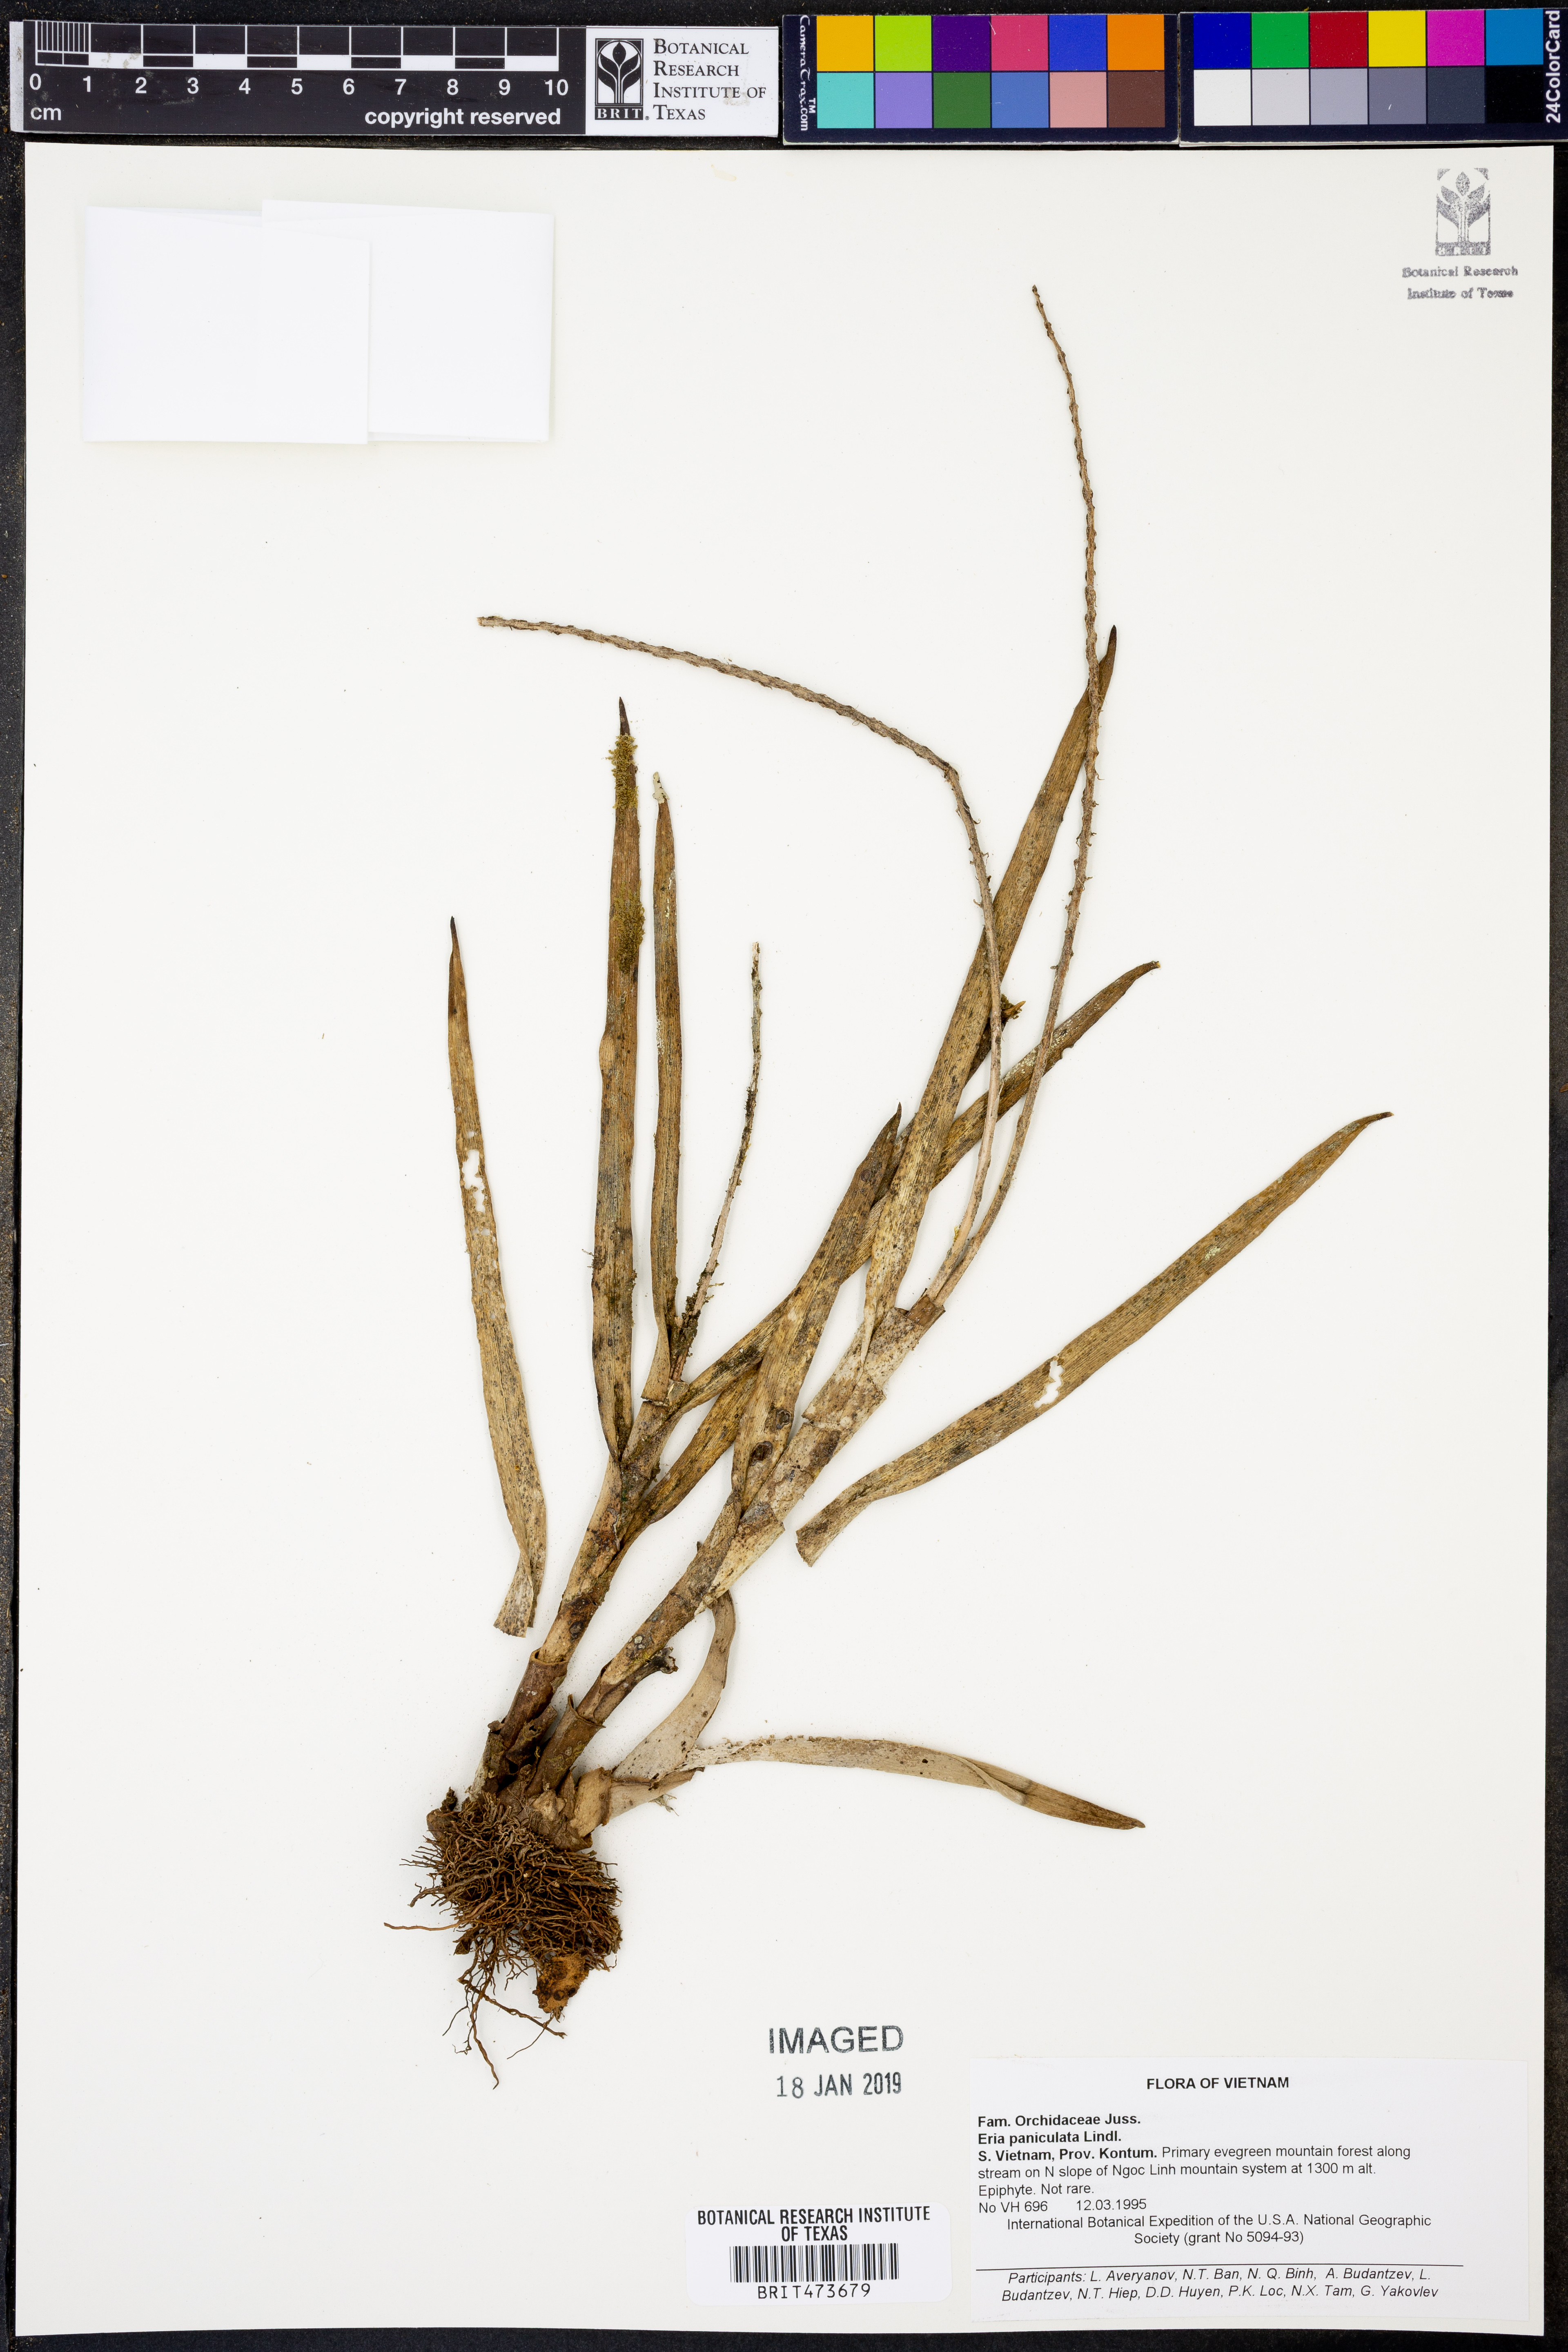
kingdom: Plantae
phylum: Tracheophyta
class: Liliopsida
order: Asparagales
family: Orchidaceae
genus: Mycaranthes
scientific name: Mycaranthes floribunda
